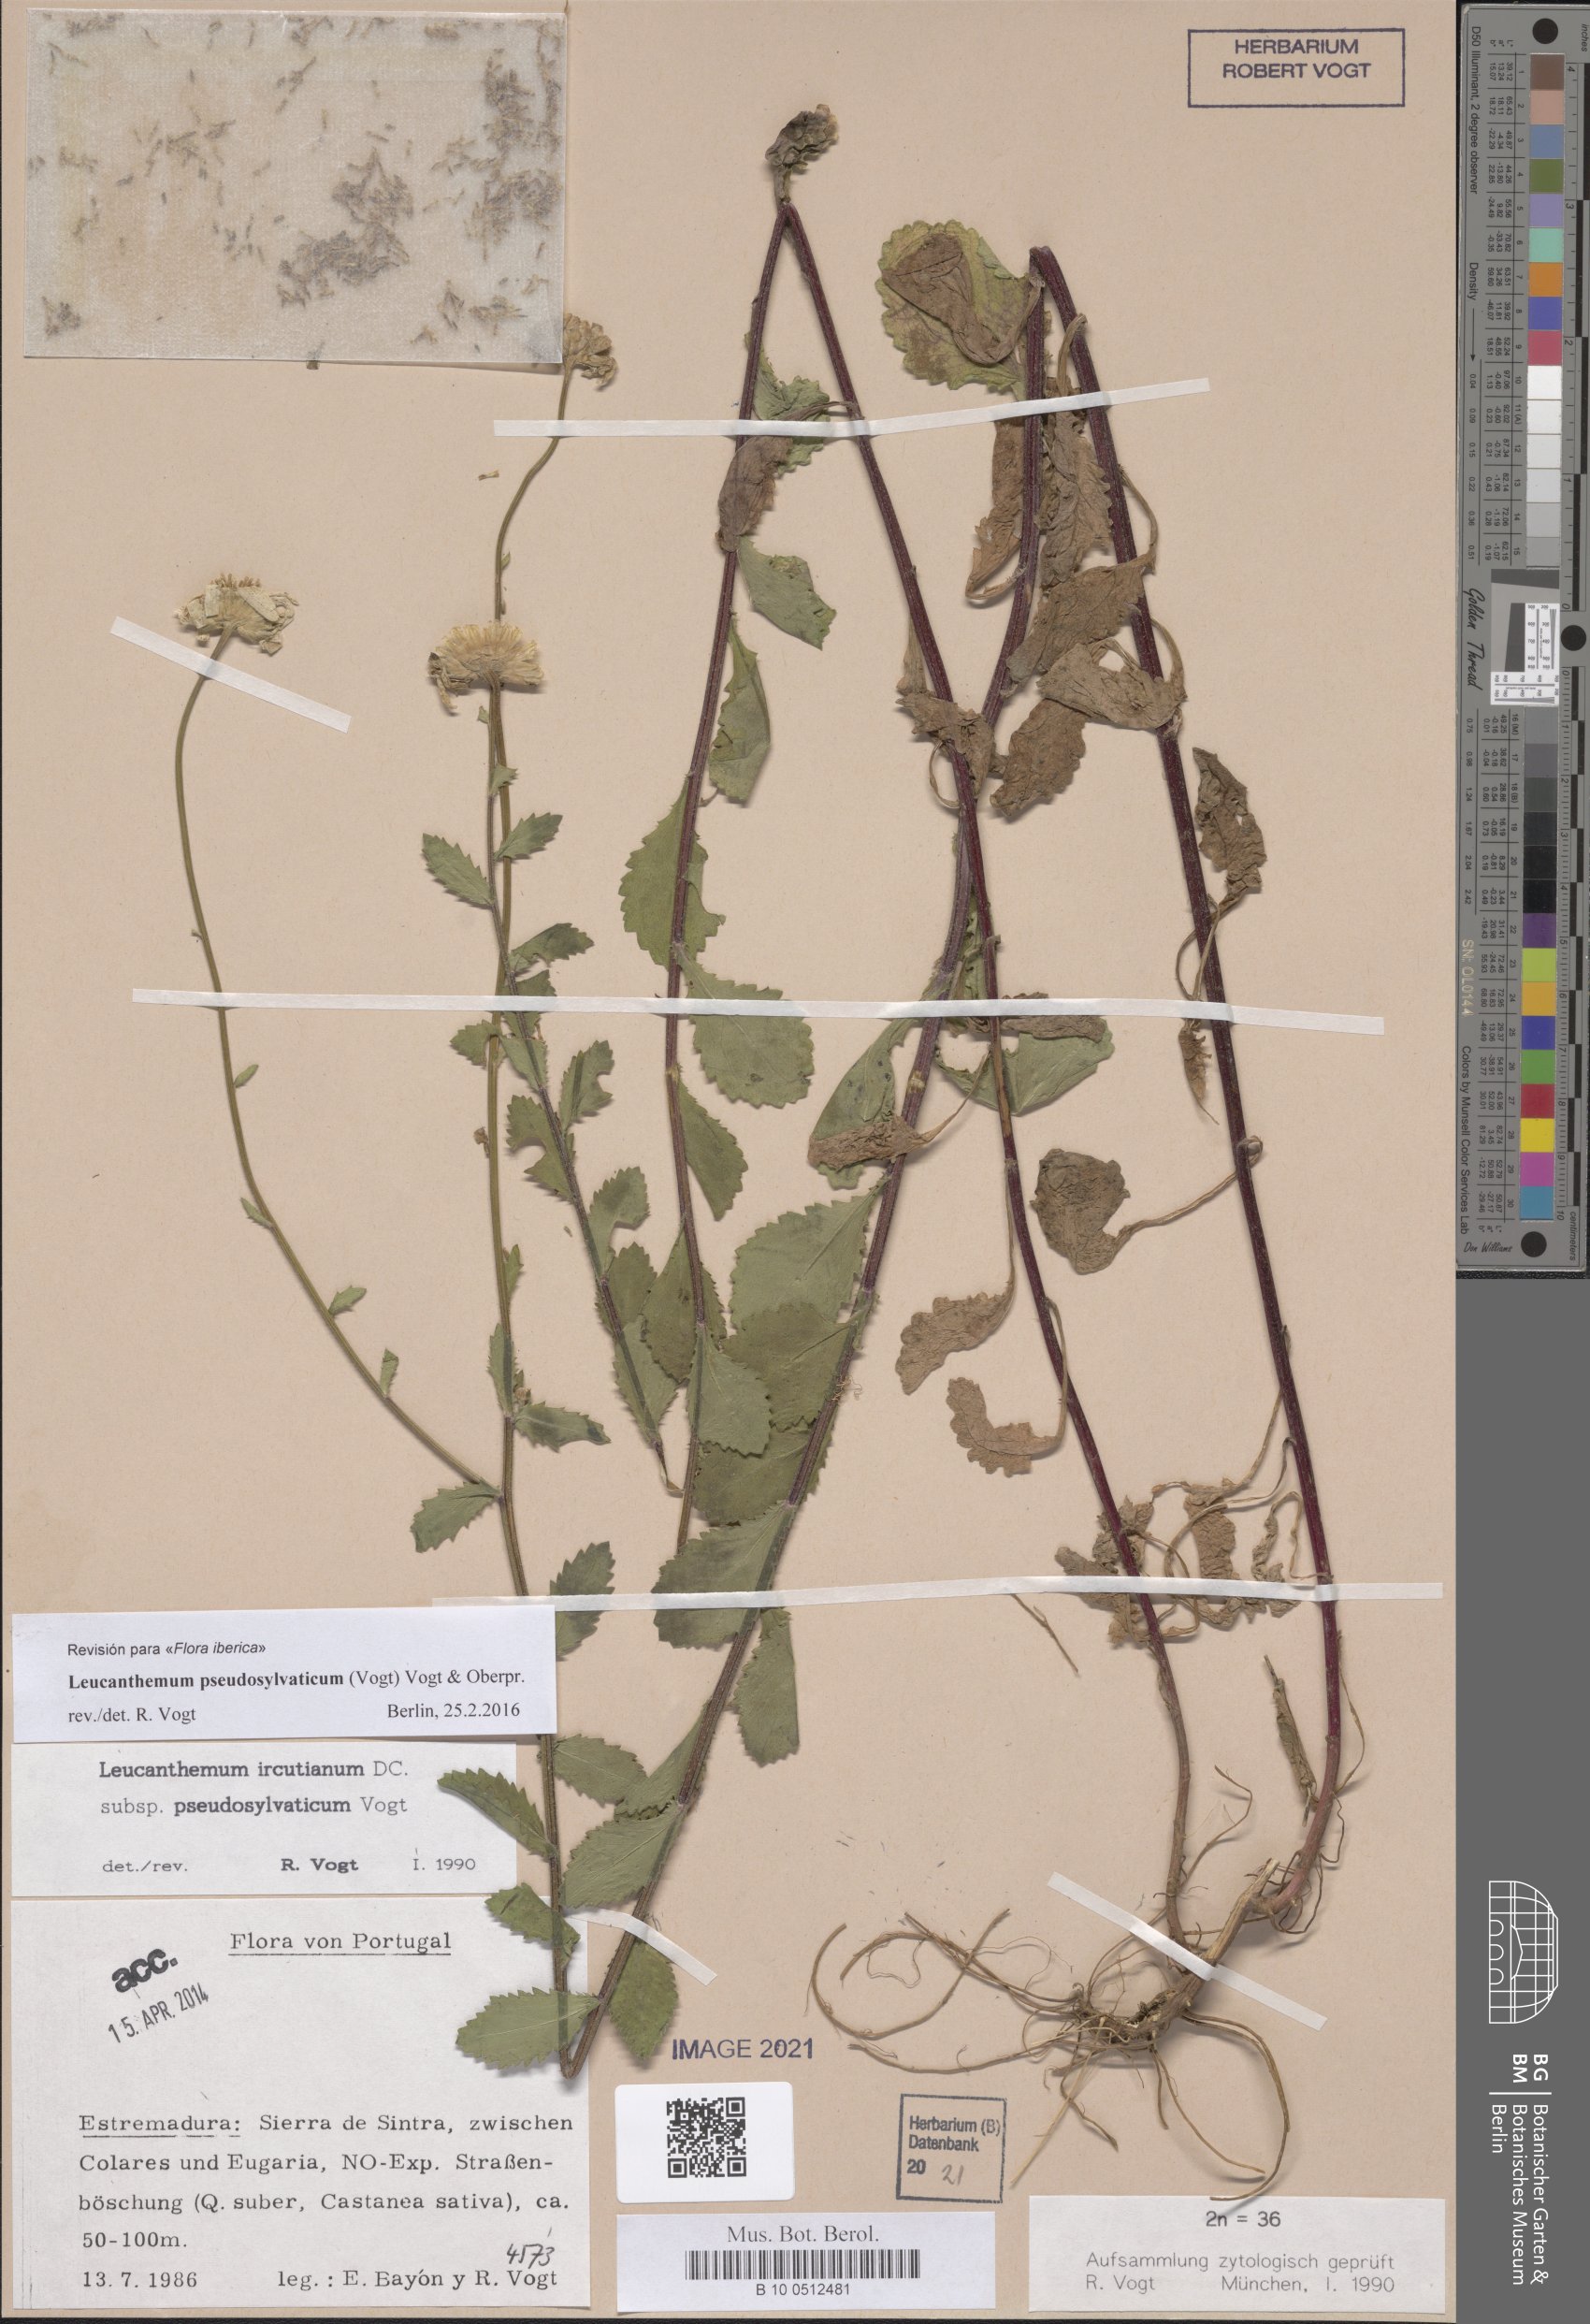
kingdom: Plantae
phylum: Tracheophyta
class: Magnoliopsida
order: Asterales
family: Asteraceae
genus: Leucanthemum
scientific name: Leucanthemum pseudosylvaticum
